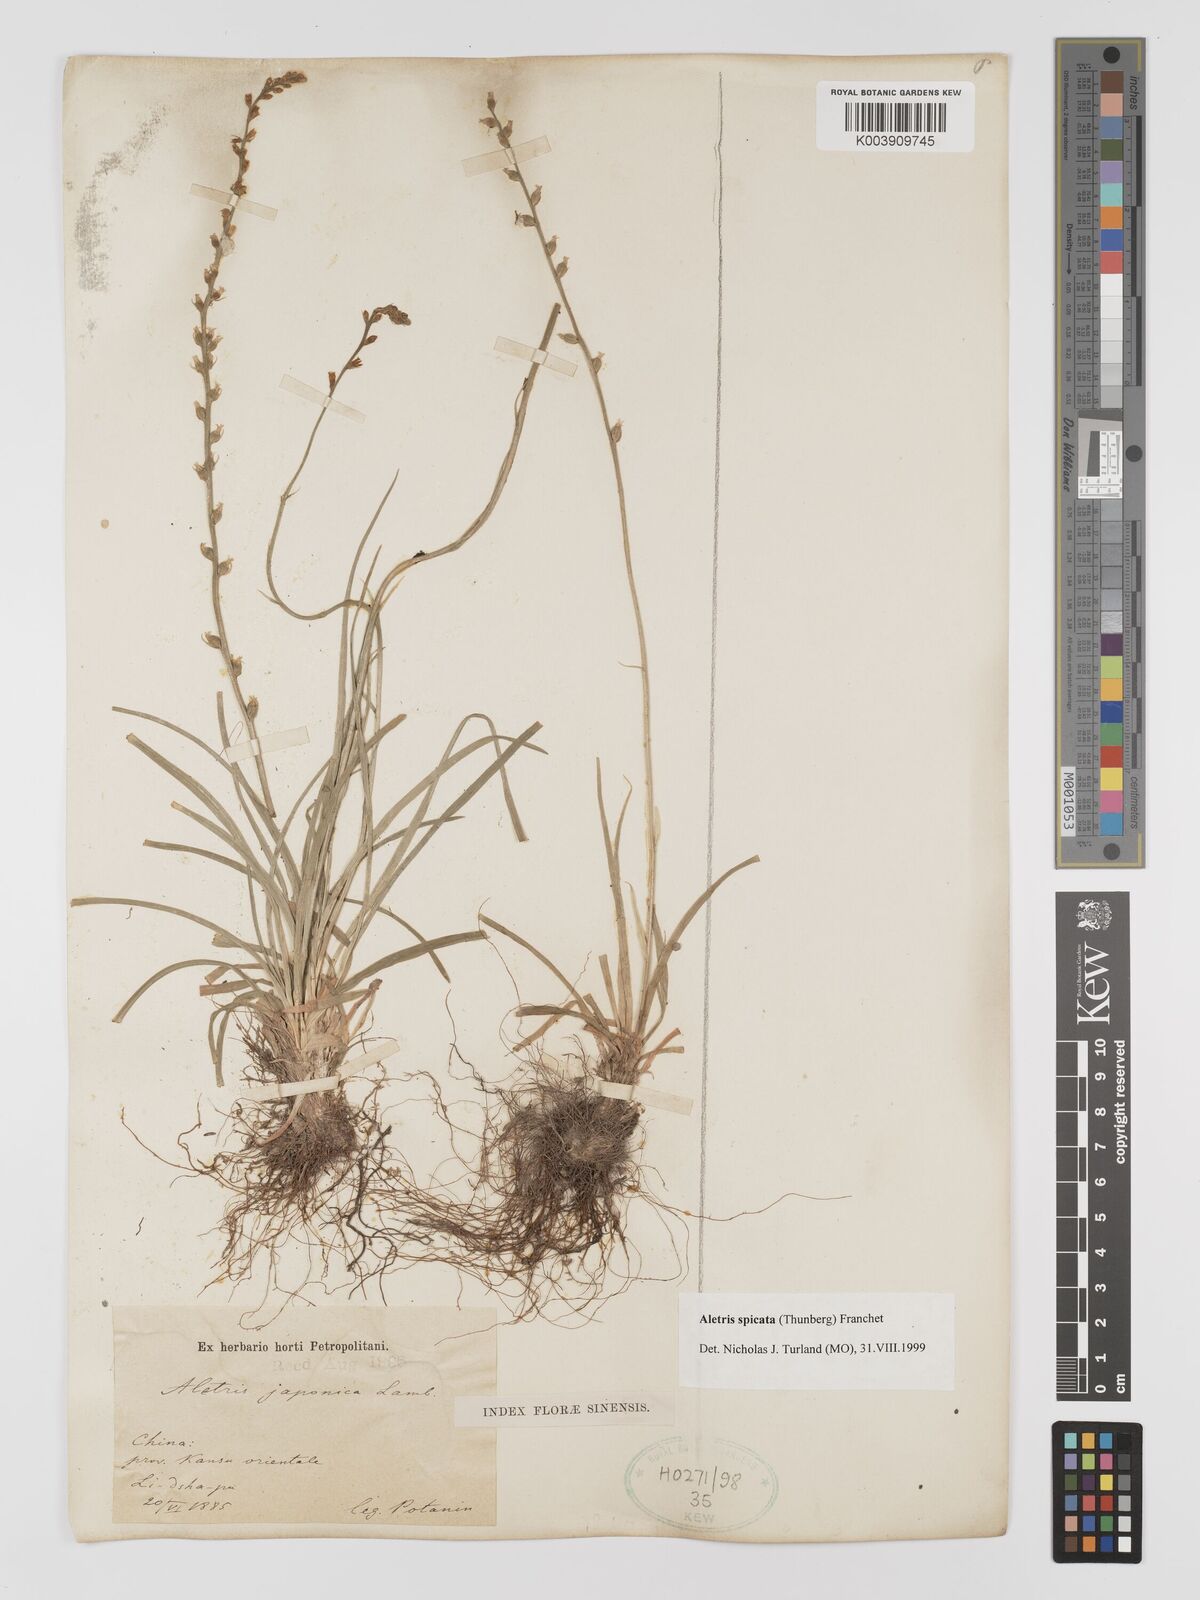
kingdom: Plantae
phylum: Tracheophyta
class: Liliopsida
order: Dioscoreales
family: Nartheciaceae
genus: Aletris
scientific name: Aletris spicata
